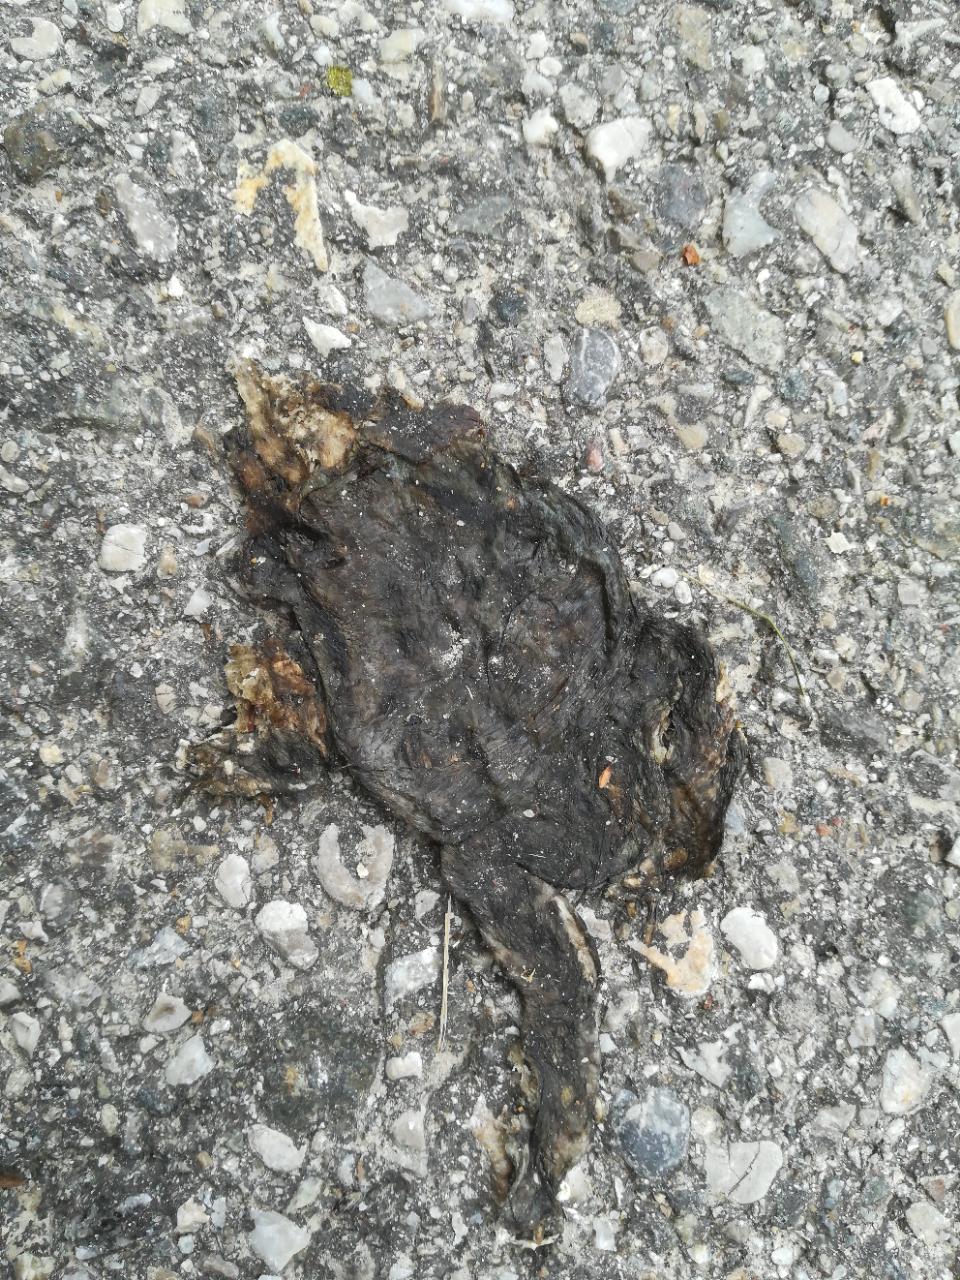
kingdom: Animalia
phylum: Chordata
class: Amphibia
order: Anura
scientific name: Anura
